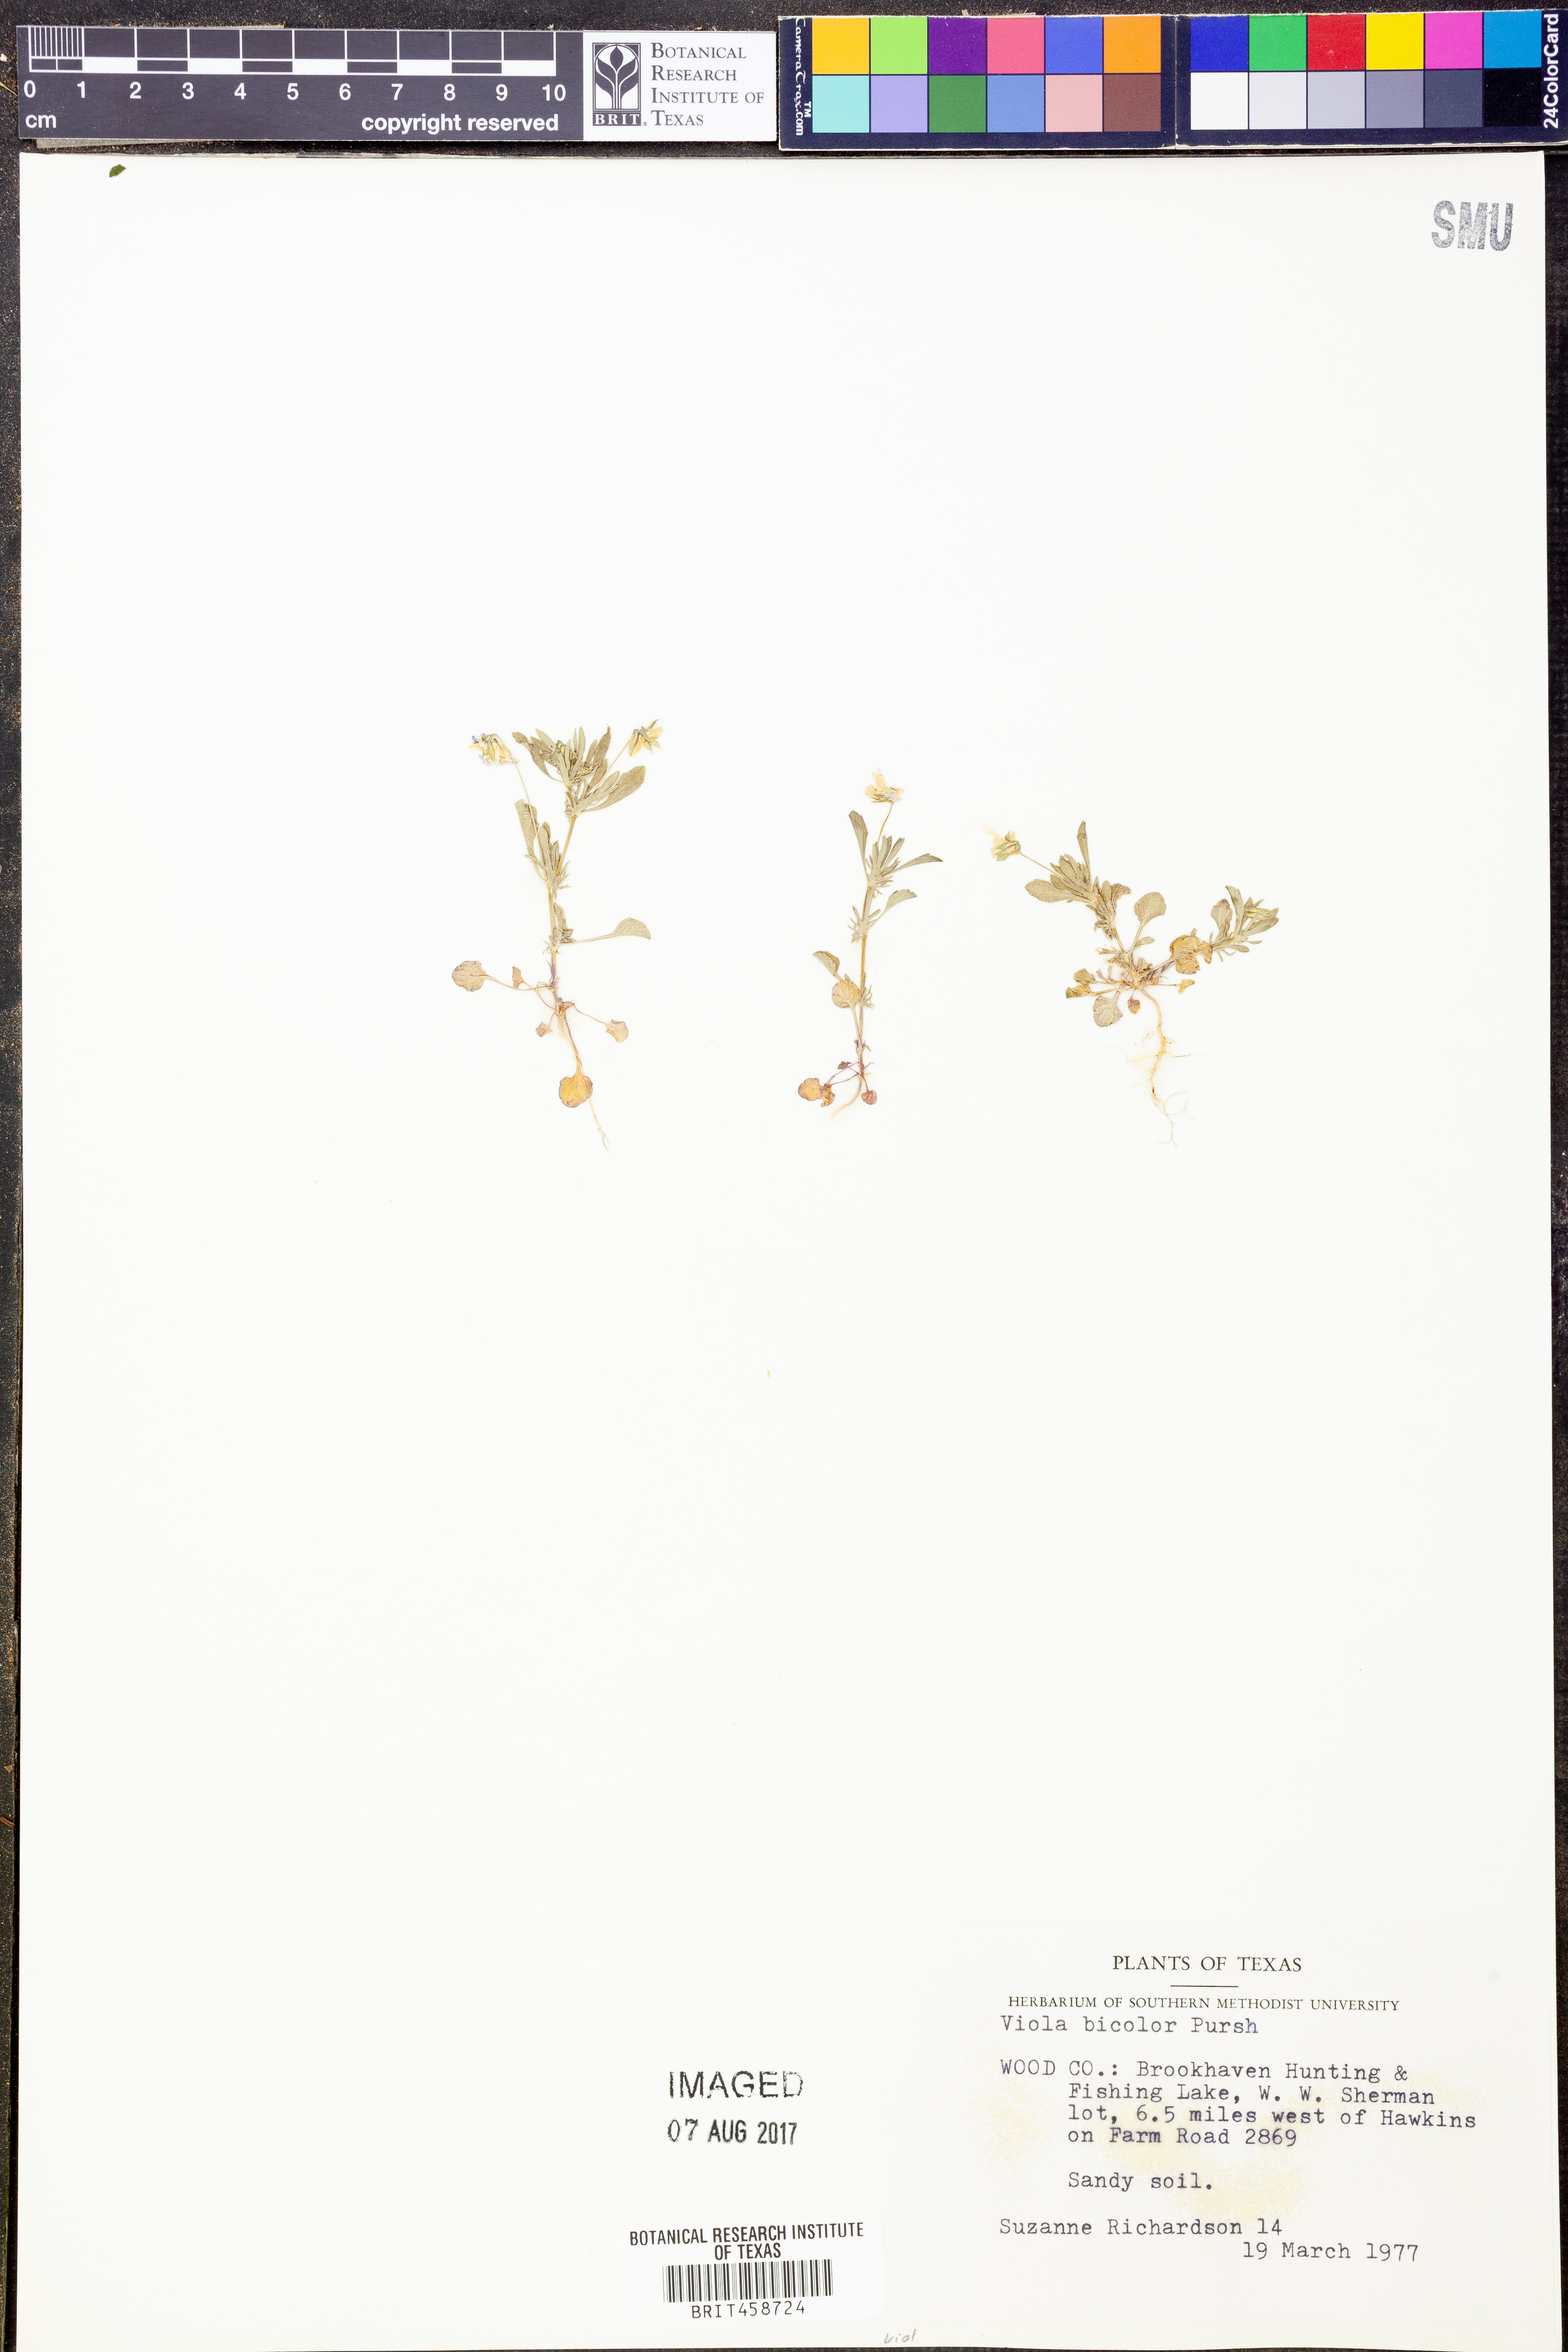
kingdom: Plantae
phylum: Tracheophyta
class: Magnoliopsida
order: Malpighiales
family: Violaceae
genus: Viola
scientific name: Viola rafinesquei
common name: American field pansy
